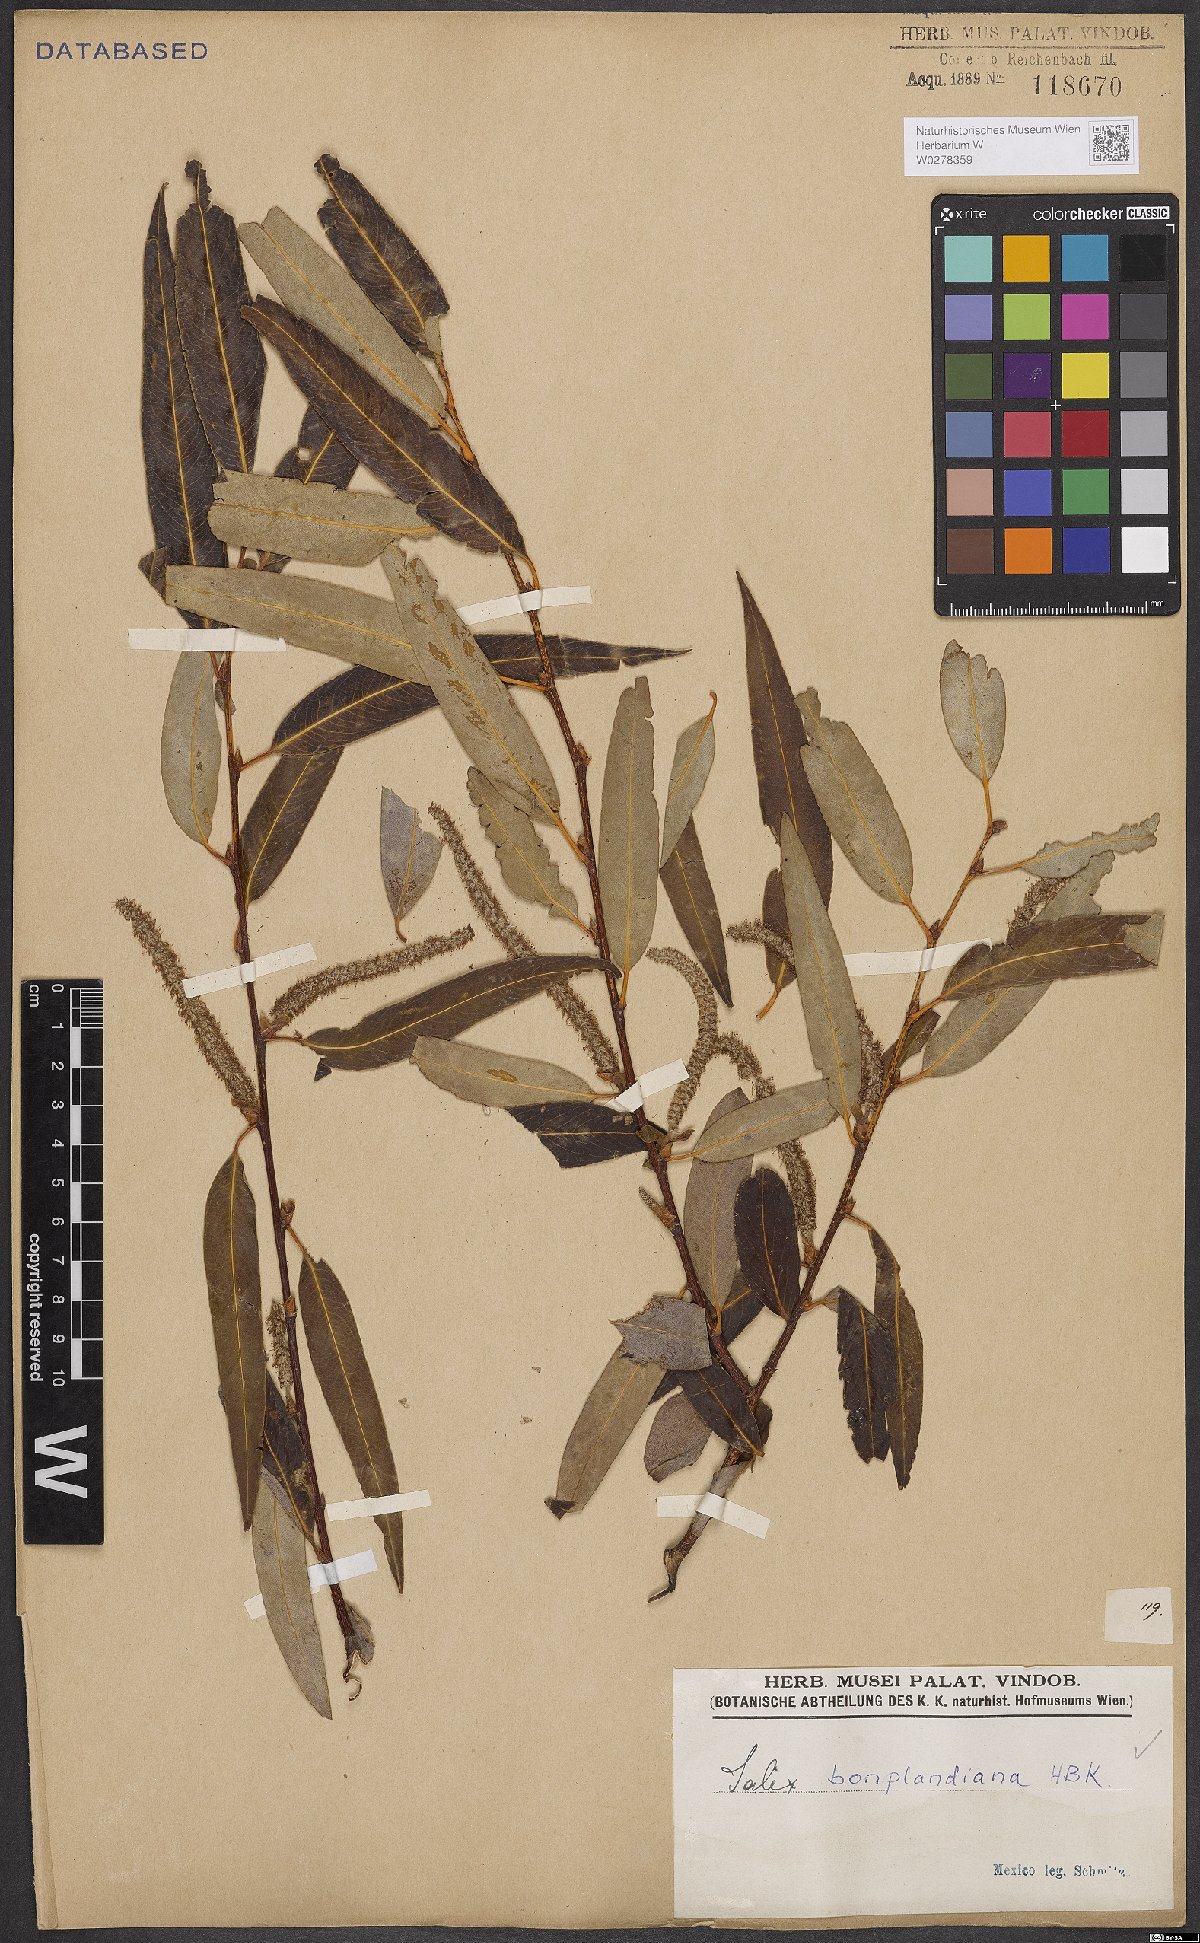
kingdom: Plantae
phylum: Tracheophyta
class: Magnoliopsida
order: Malpighiales
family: Salicaceae
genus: Salix
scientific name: Salix bonplandiana
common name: Bonpland’s willow
